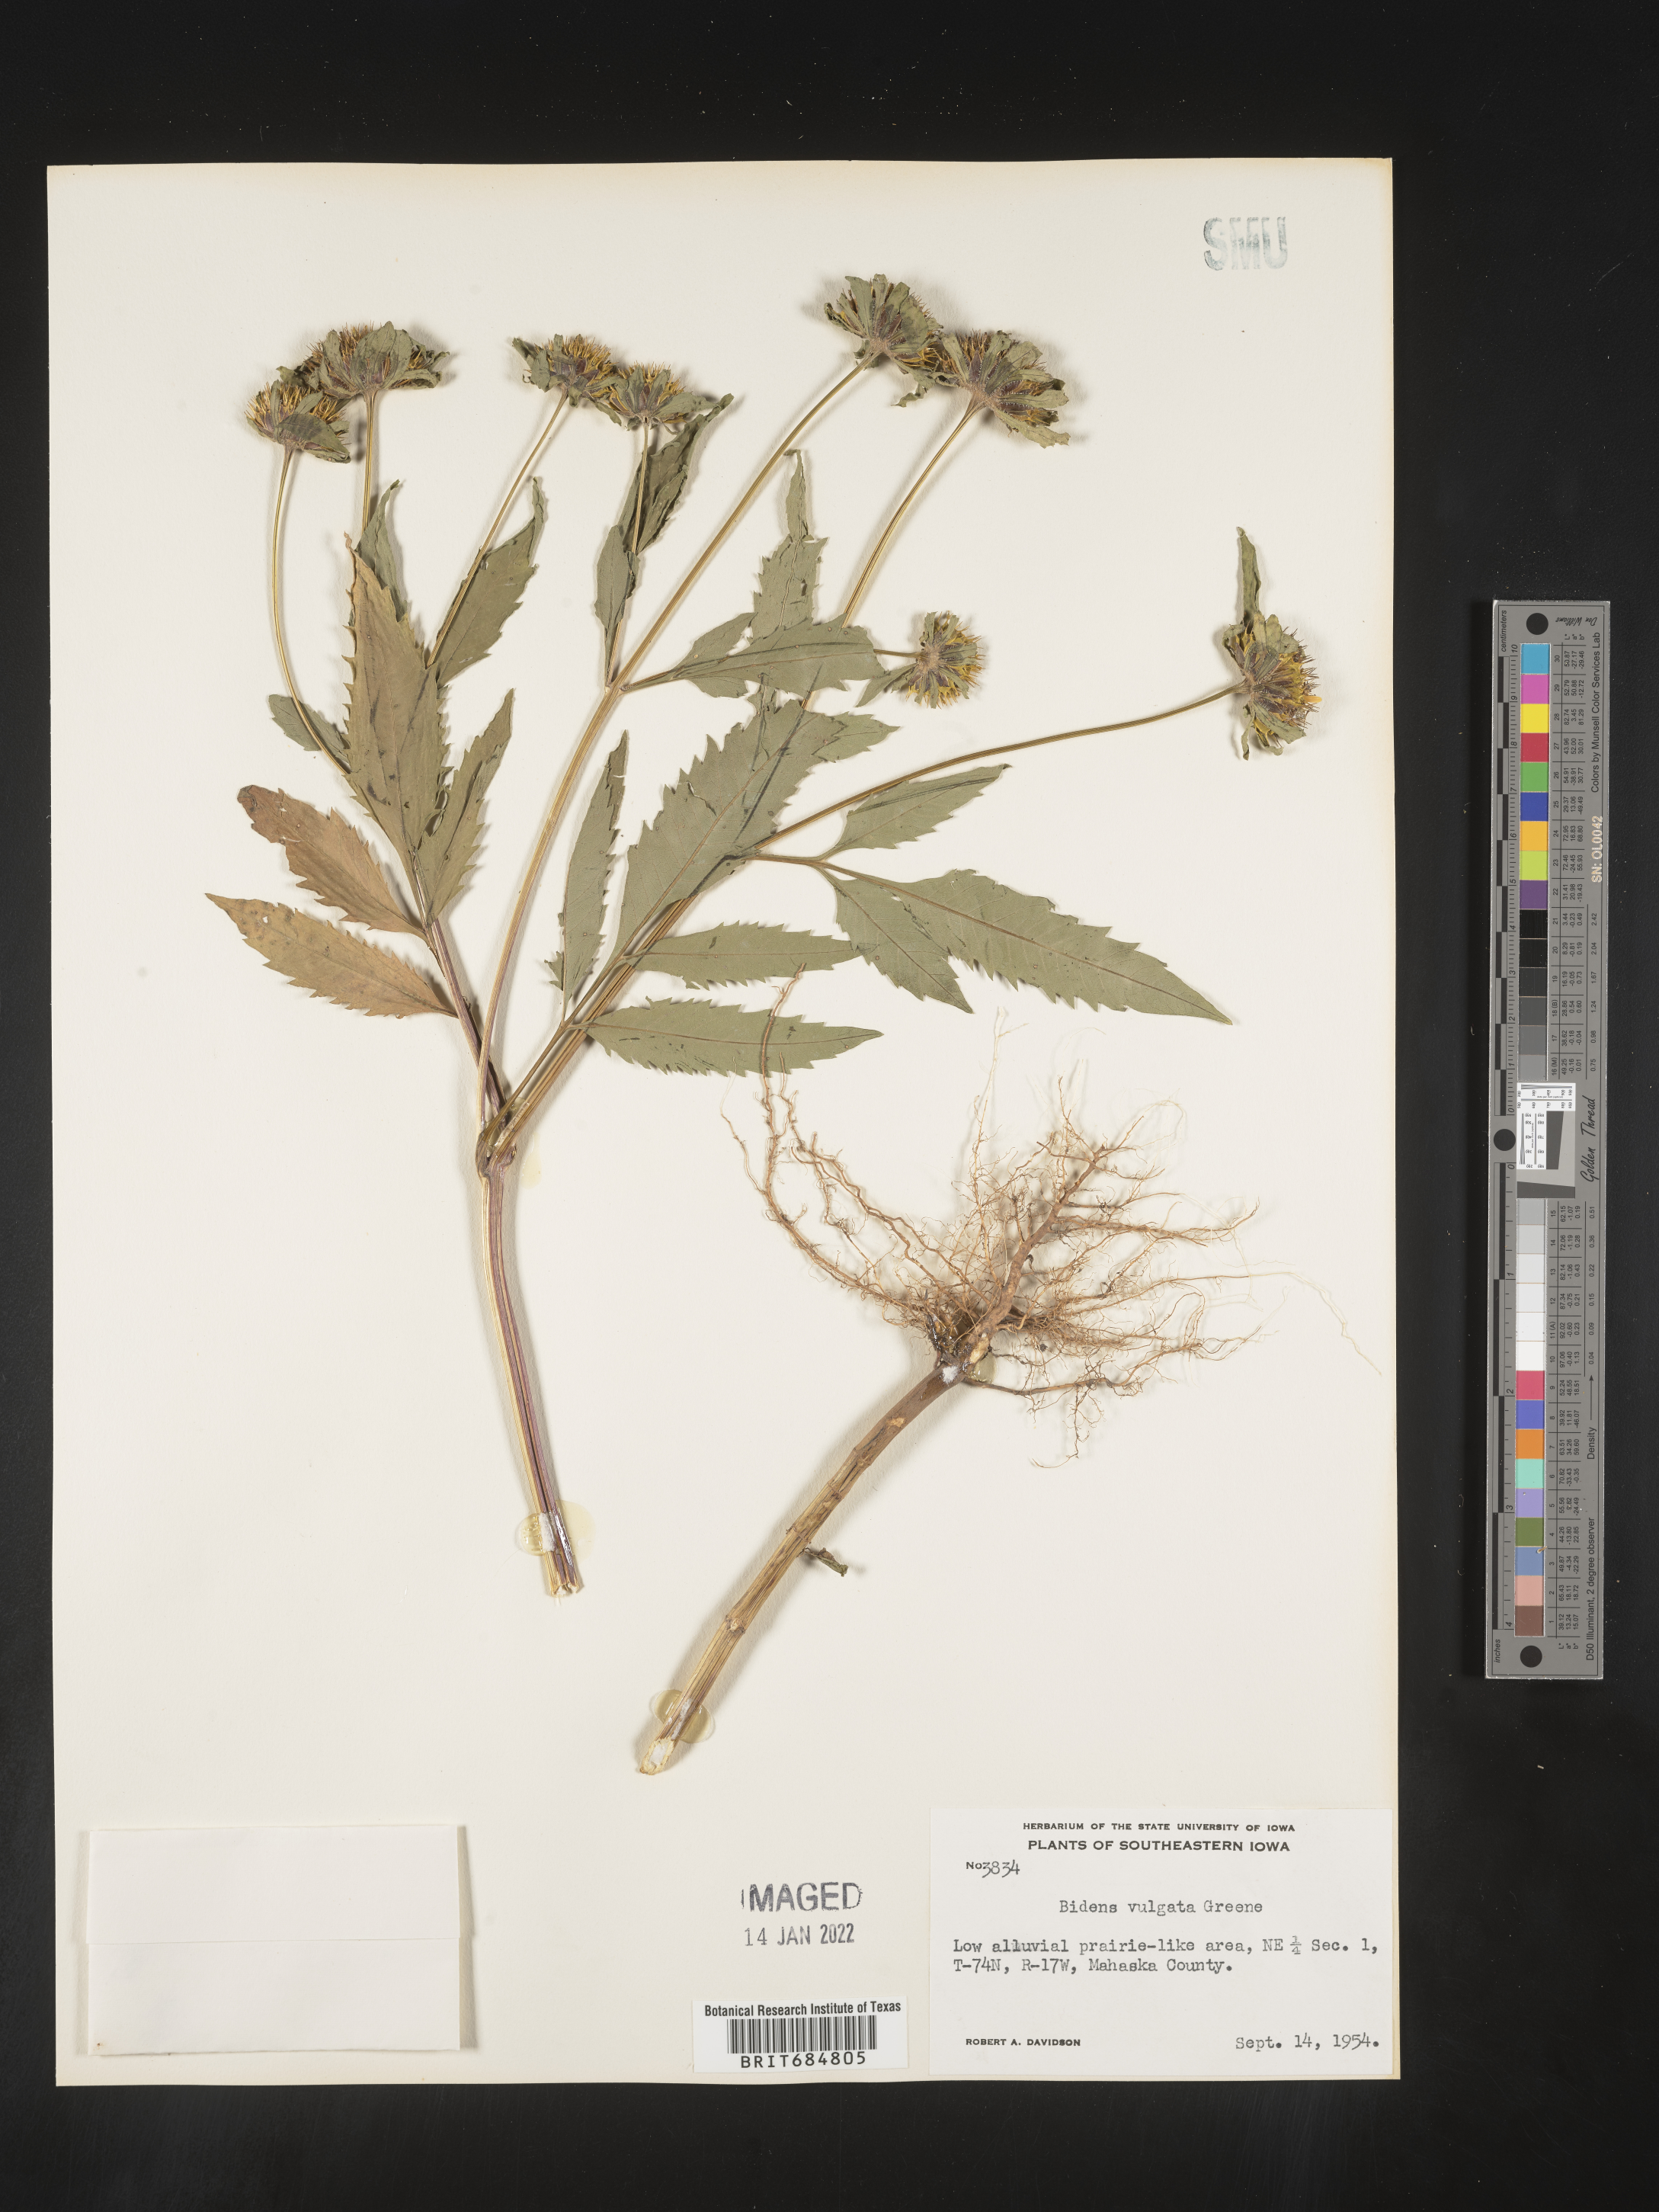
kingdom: Plantae
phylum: Tracheophyta
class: Magnoliopsida
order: Asterales
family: Asteraceae
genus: Bidens
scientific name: Bidens vulgata
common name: Tall beggarticks
